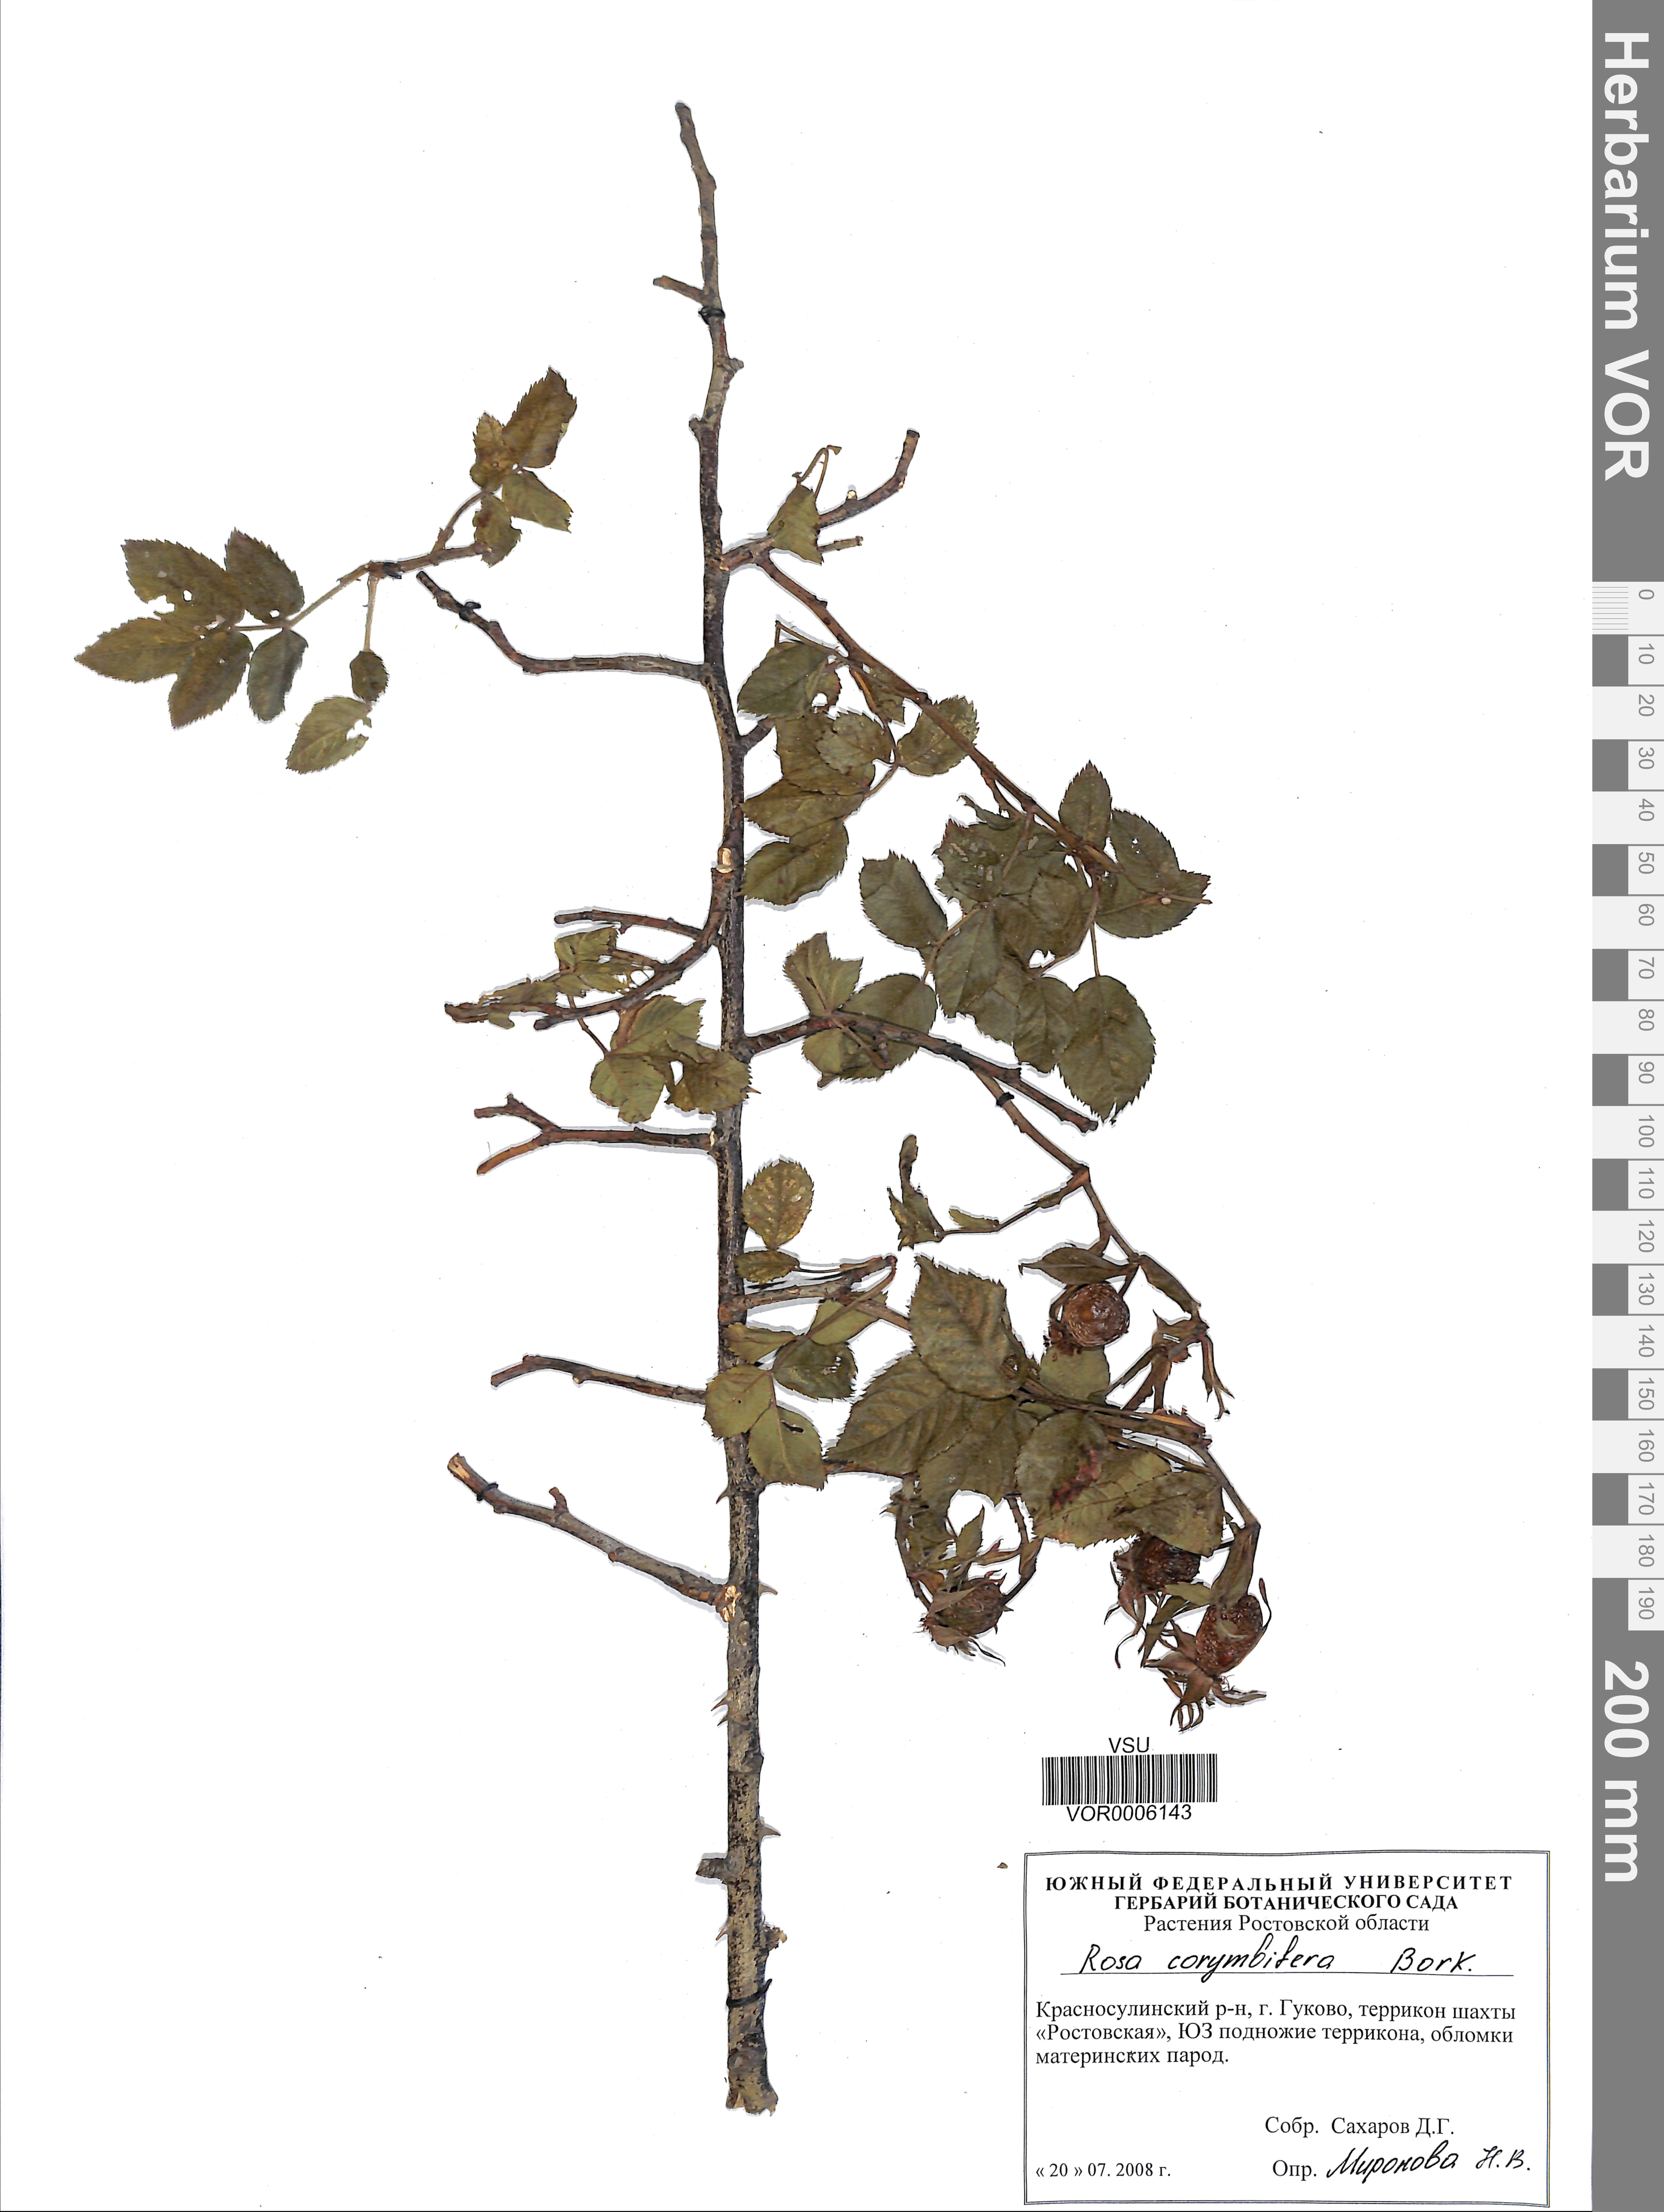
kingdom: Plantae
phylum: Tracheophyta
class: Magnoliopsida
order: Rosales
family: Rosaceae
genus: Rosa
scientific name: Rosa corymbifera
